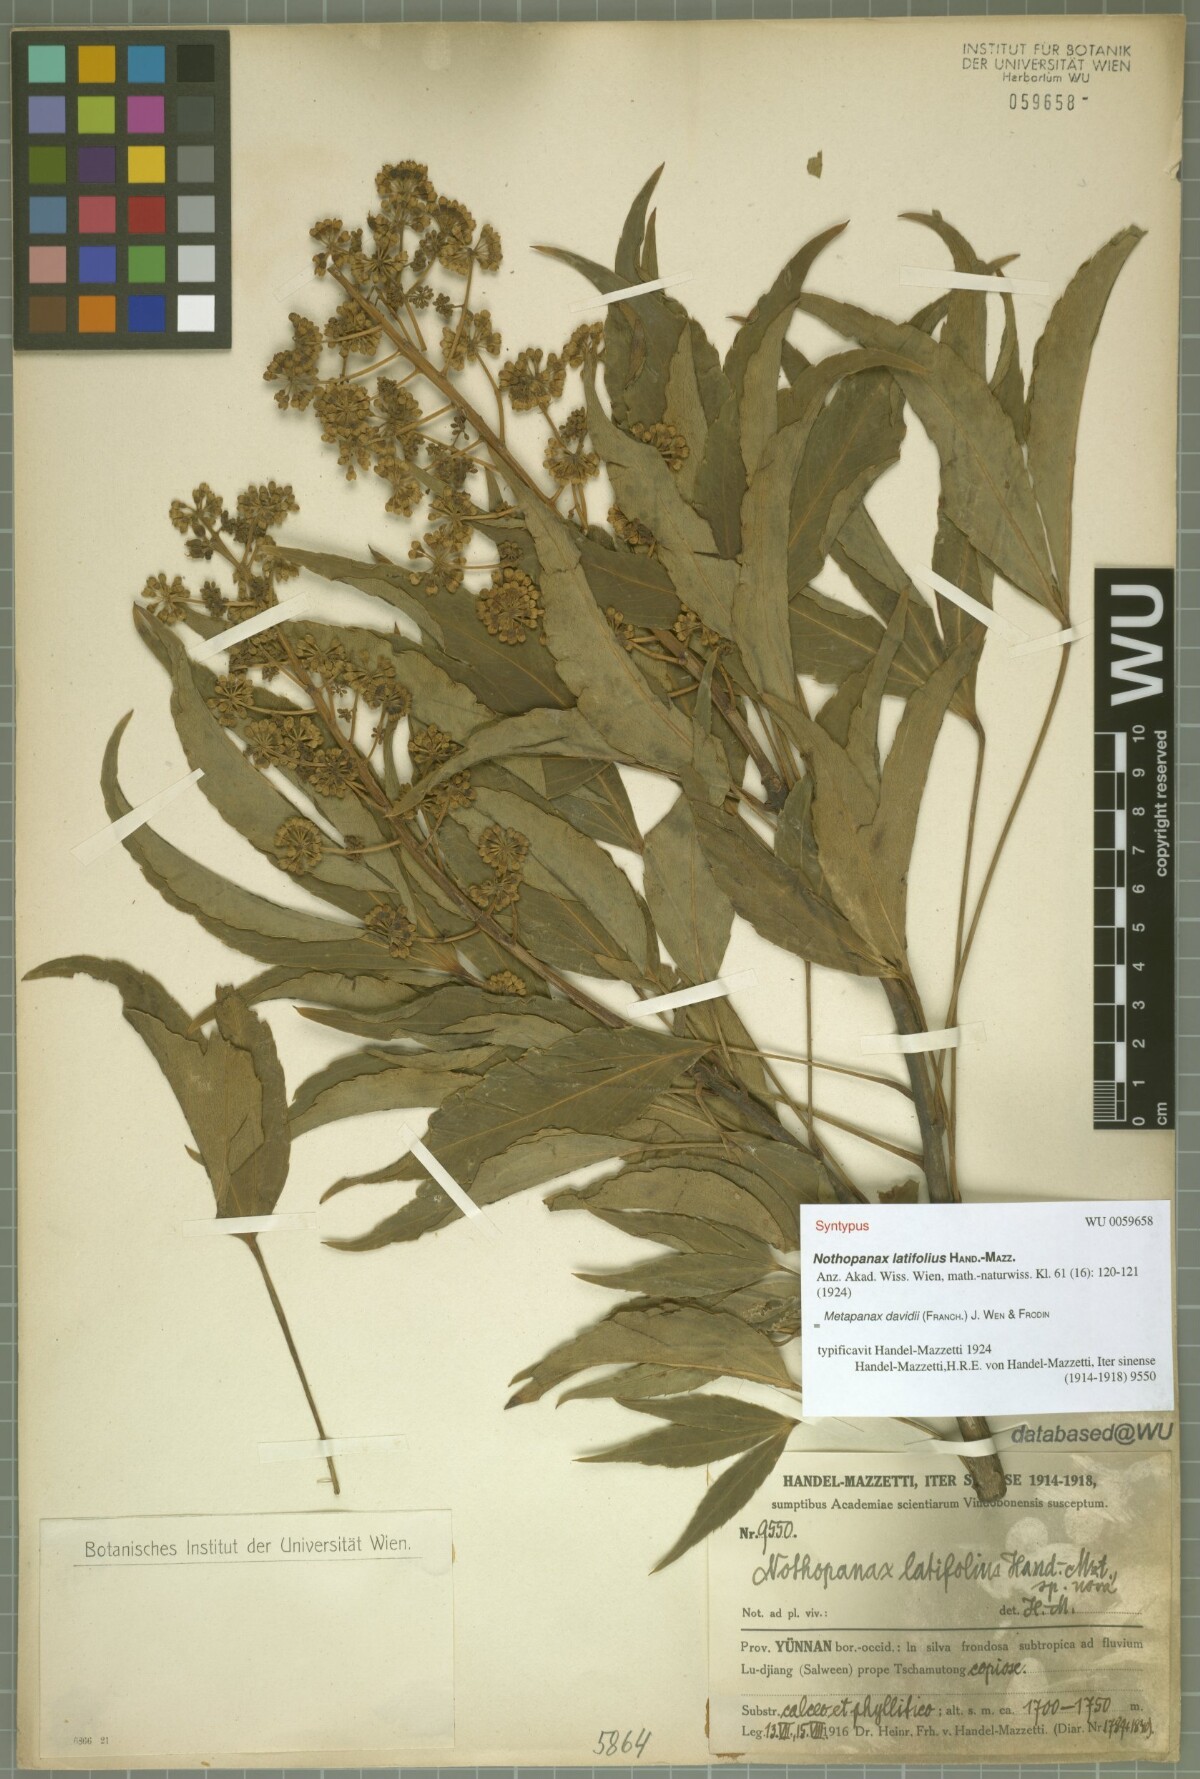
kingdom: Plantae
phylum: Tracheophyta
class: Magnoliopsida
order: Apiales
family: Araliaceae
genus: Metapanax
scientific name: Metapanax davidii
